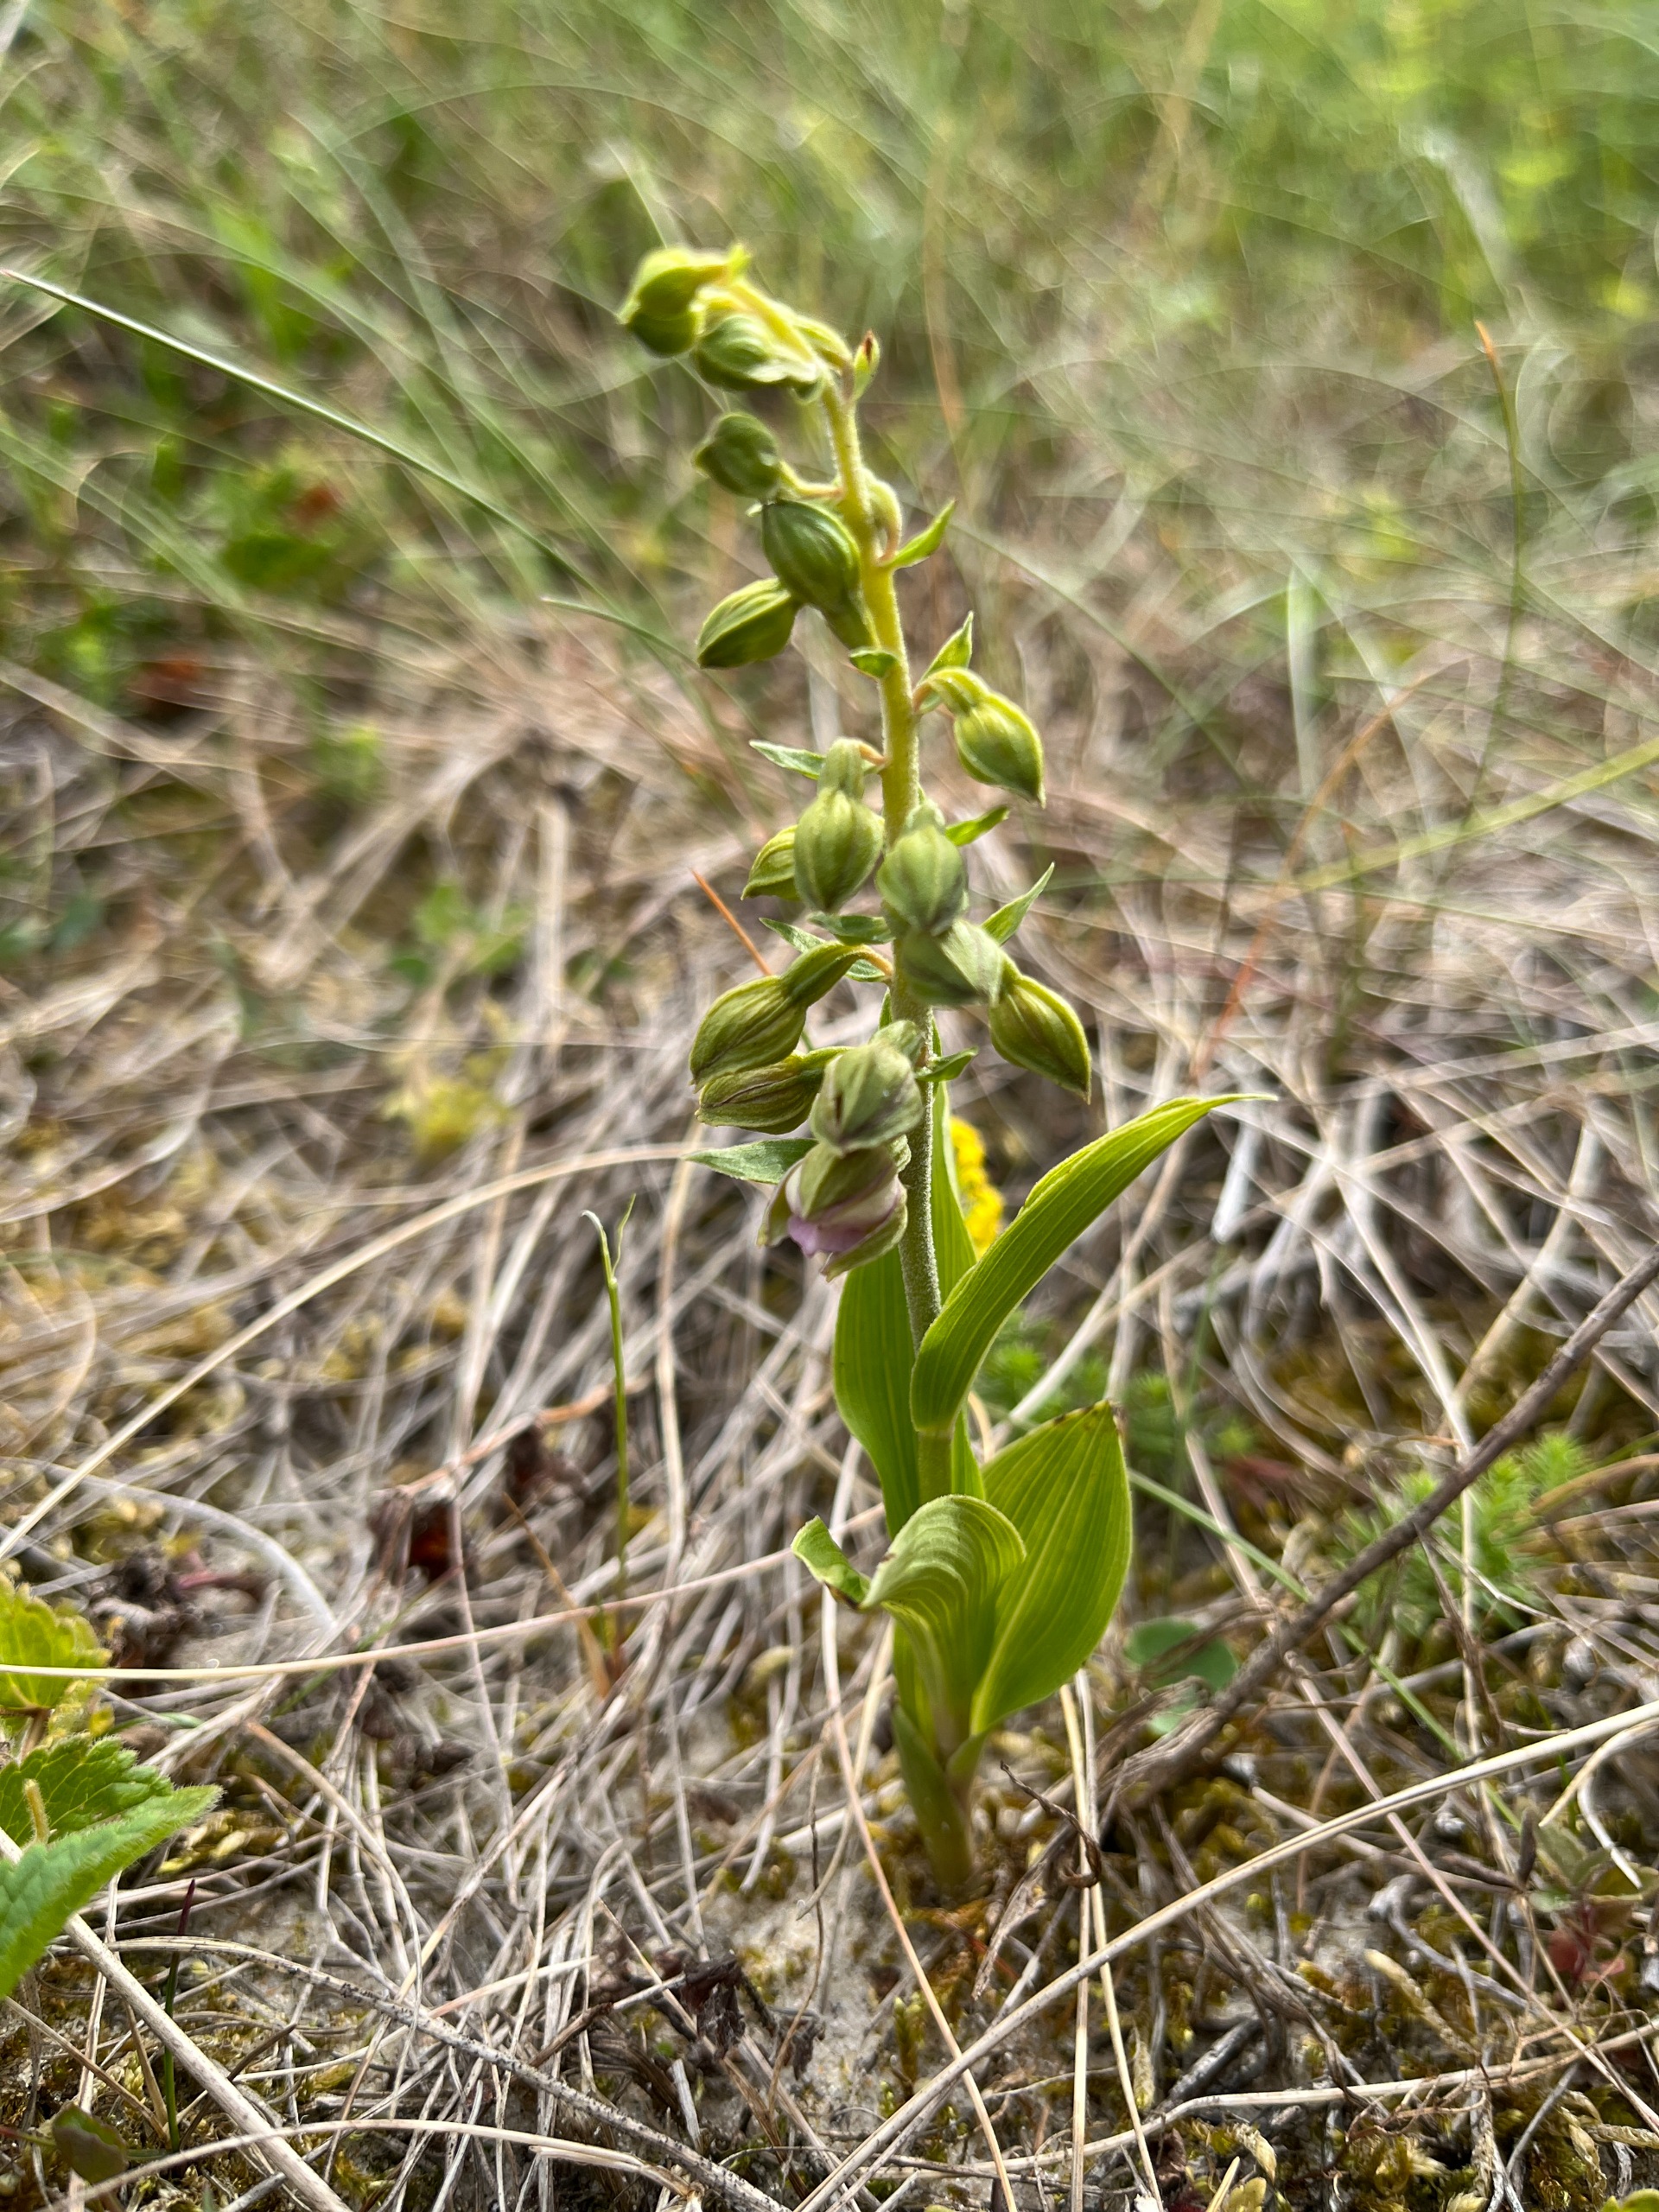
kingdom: Plantae
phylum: Tracheophyta
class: Liliopsida
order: Asparagales
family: Orchidaceae
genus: Epipactis
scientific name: Epipactis helleborine
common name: Hollandsk hullæbe
